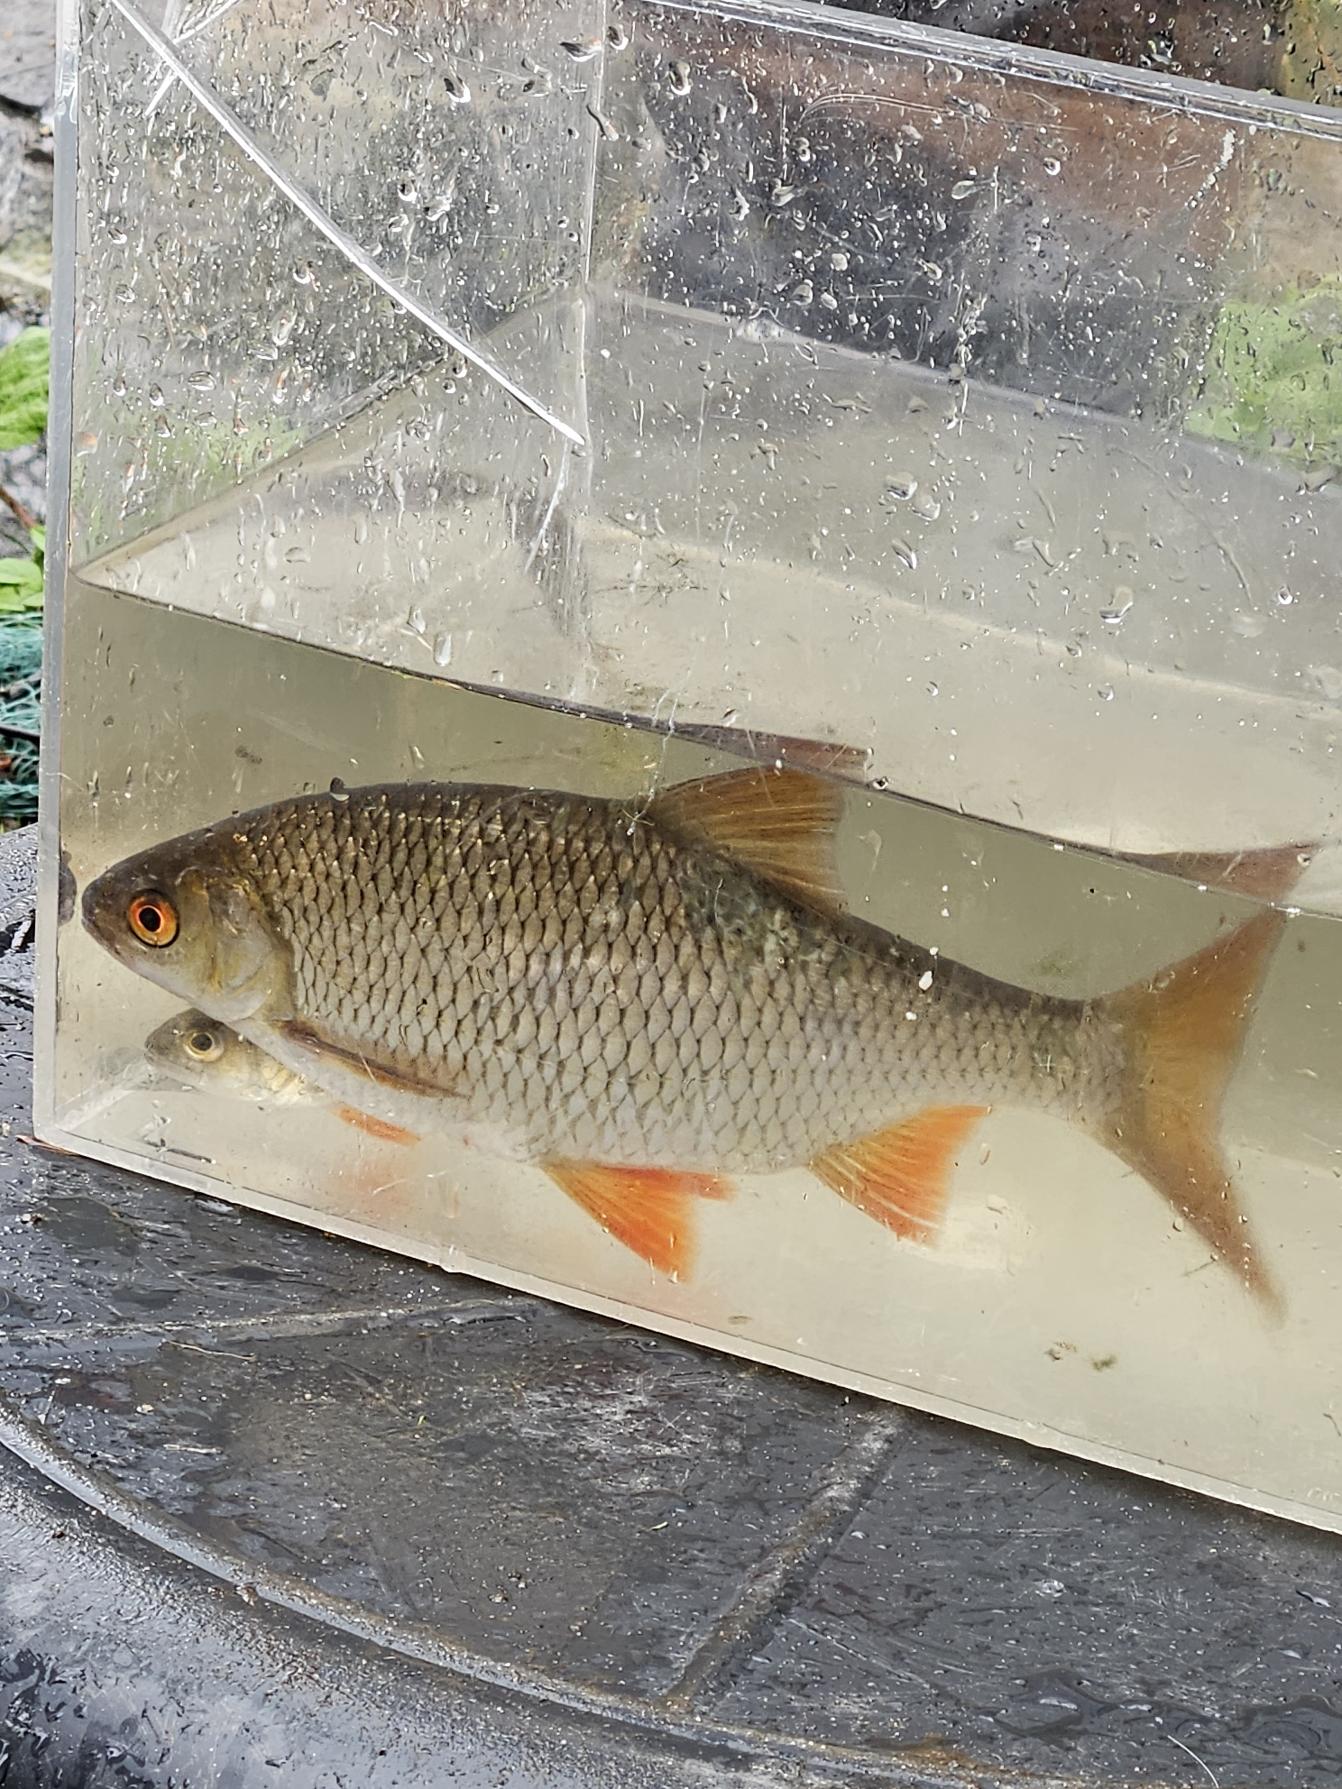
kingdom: Animalia
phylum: Chordata
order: Cypriniformes
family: Cyprinidae
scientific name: Cyprinidae
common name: Karpefamilien
